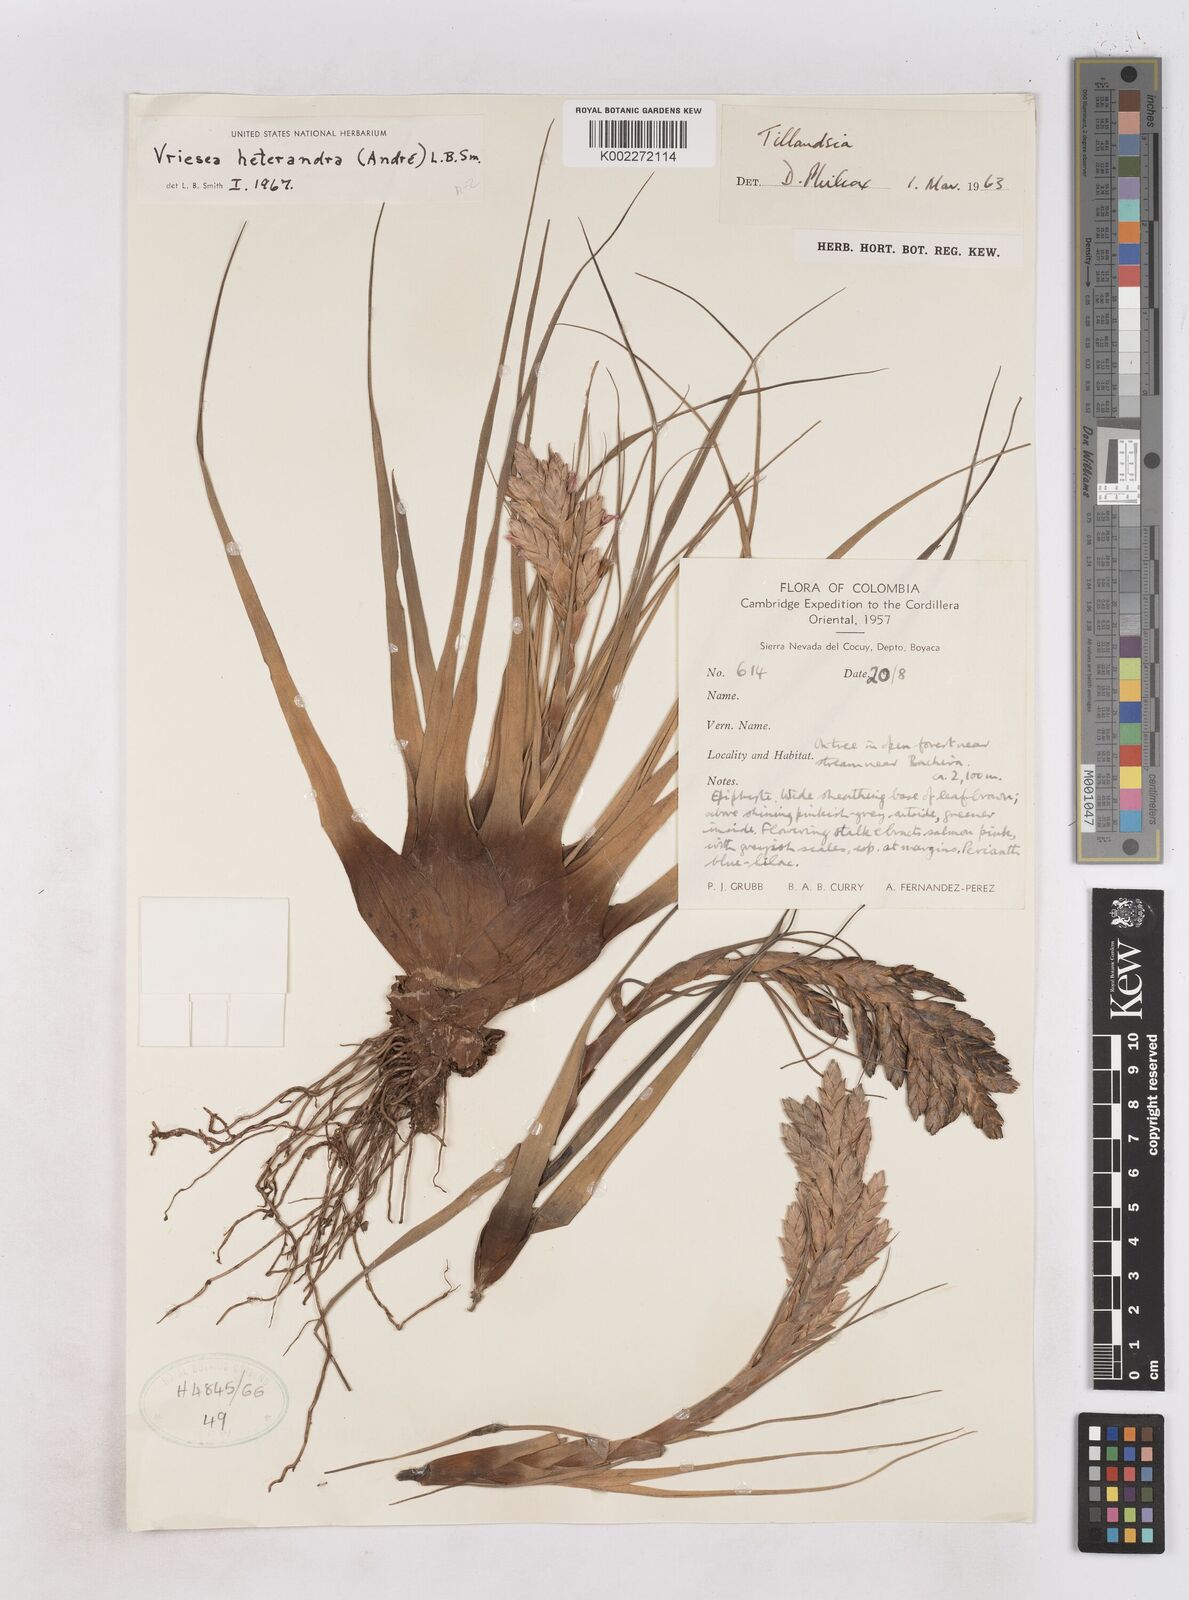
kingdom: Plantae
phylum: Tracheophyta
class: Liliopsida
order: Poales
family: Bromeliaceae
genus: Tillandsia
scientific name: Tillandsia heterandra
